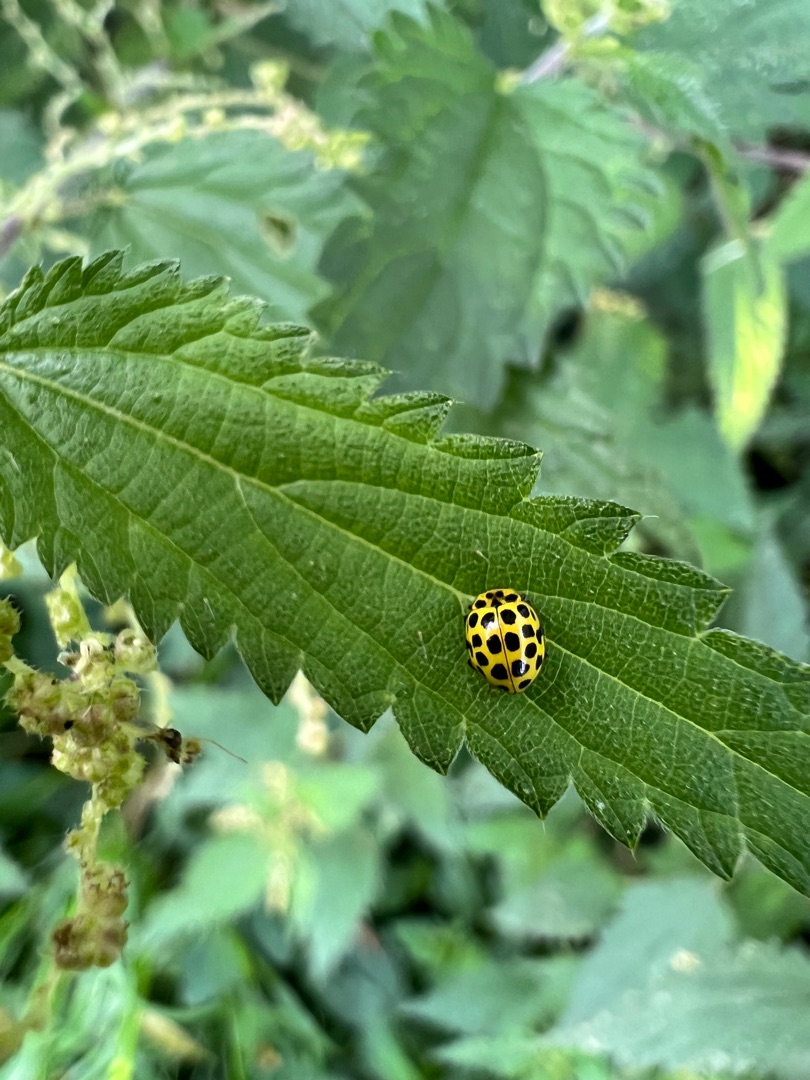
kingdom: Animalia
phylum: Arthropoda
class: Insecta
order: Coleoptera
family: Coccinellidae
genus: Psyllobora
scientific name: Psyllobora vigintiduopunctata
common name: Toogtyveplettet mariehøne
